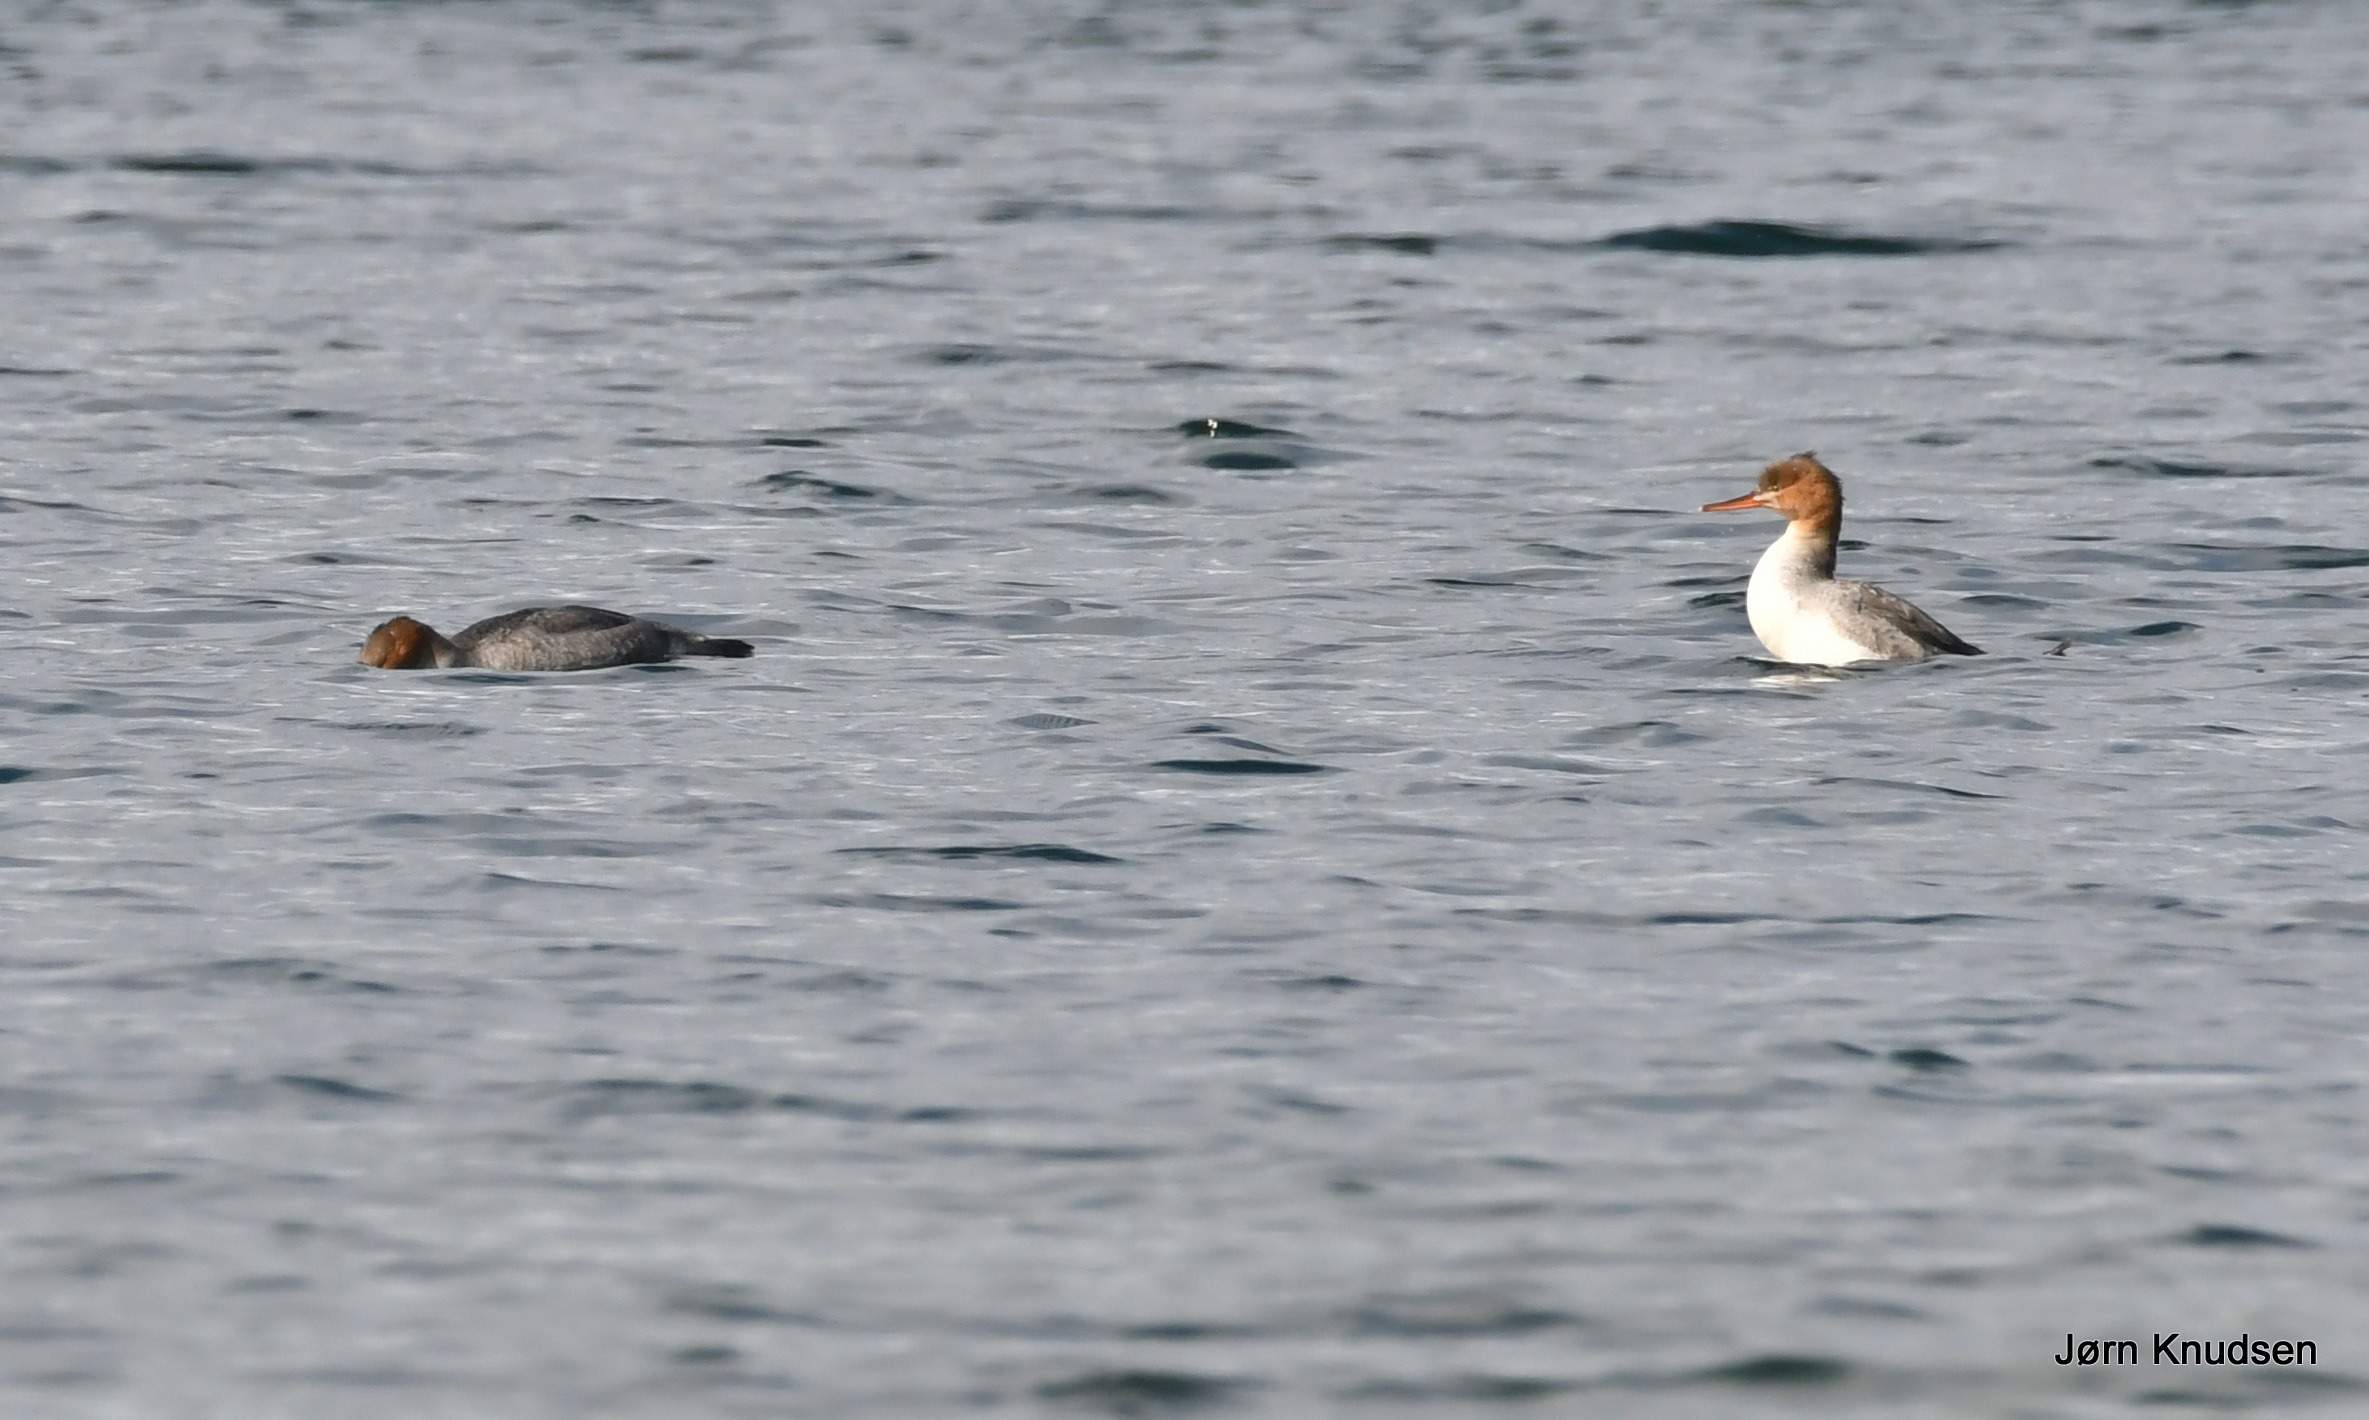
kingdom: Animalia
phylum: Chordata
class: Aves
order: Anseriformes
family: Anatidae
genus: Mergus
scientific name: Mergus serrator
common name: Toppet skallesluger
